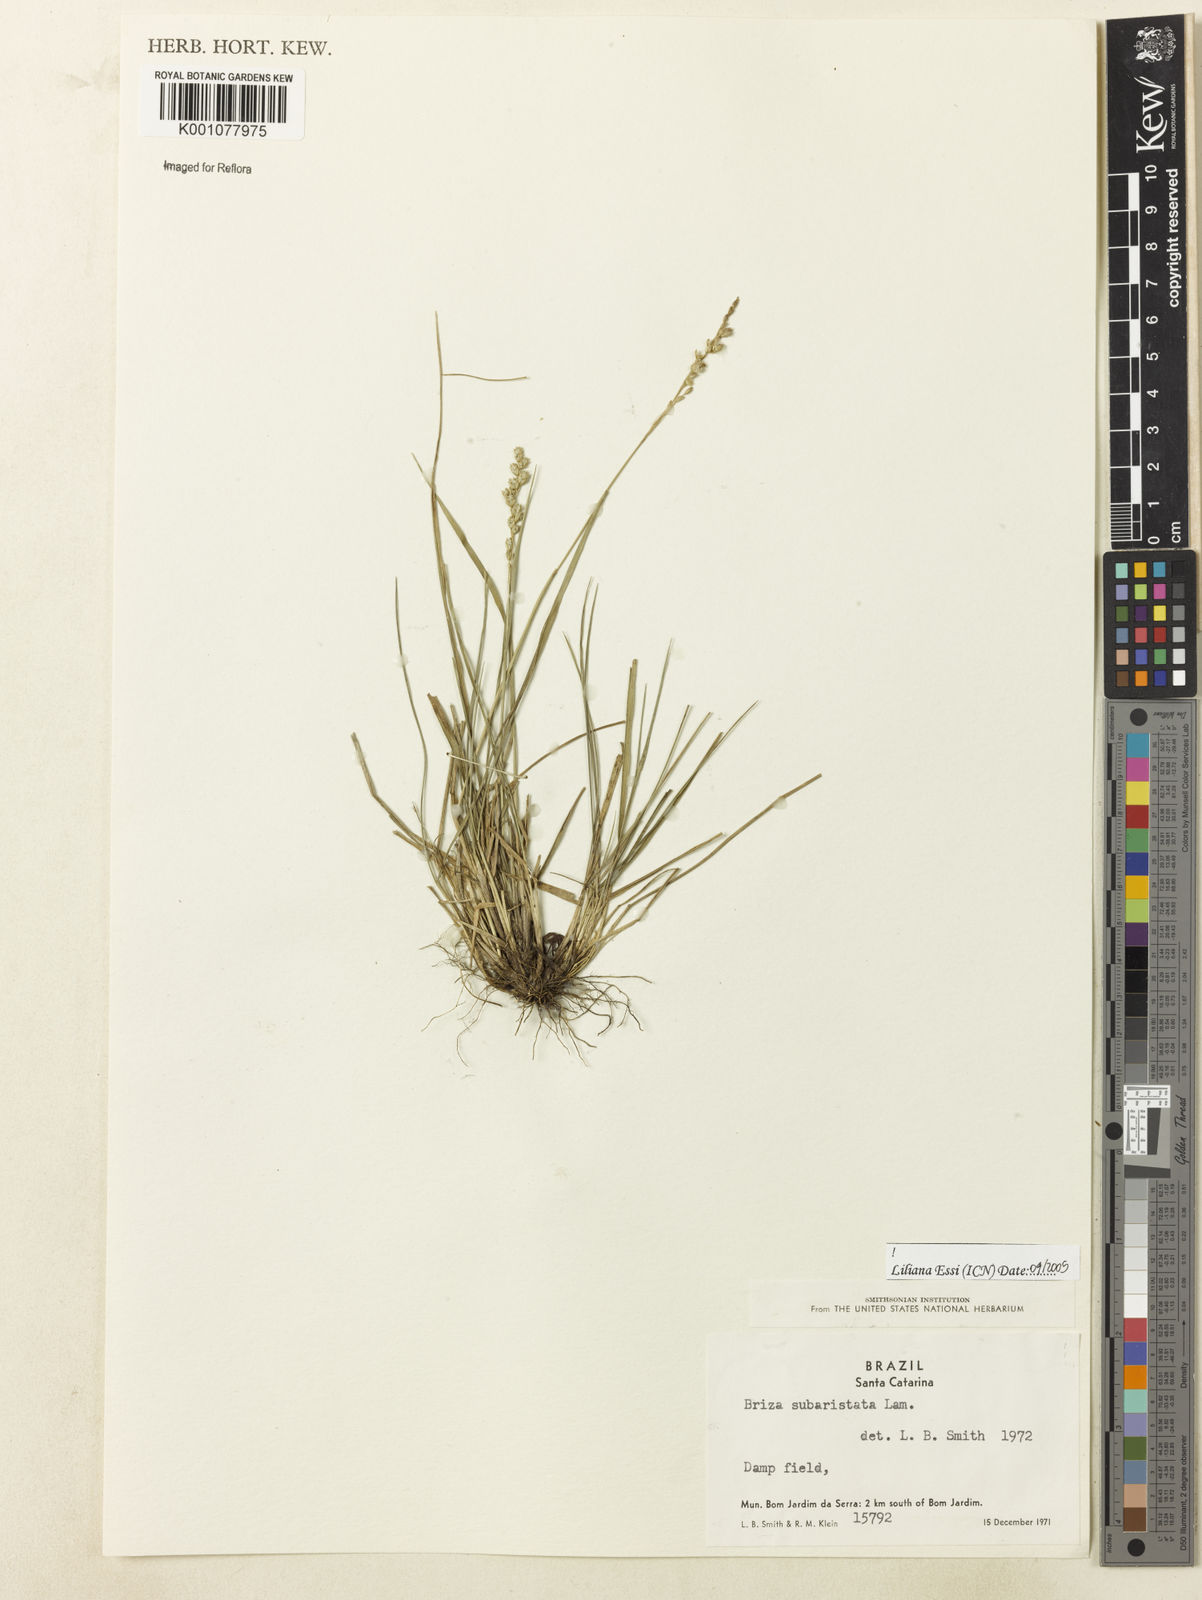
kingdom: Plantae
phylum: Tracheophyta
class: Liliopsida
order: Poales
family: Poaceae
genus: Briza
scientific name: Briza
